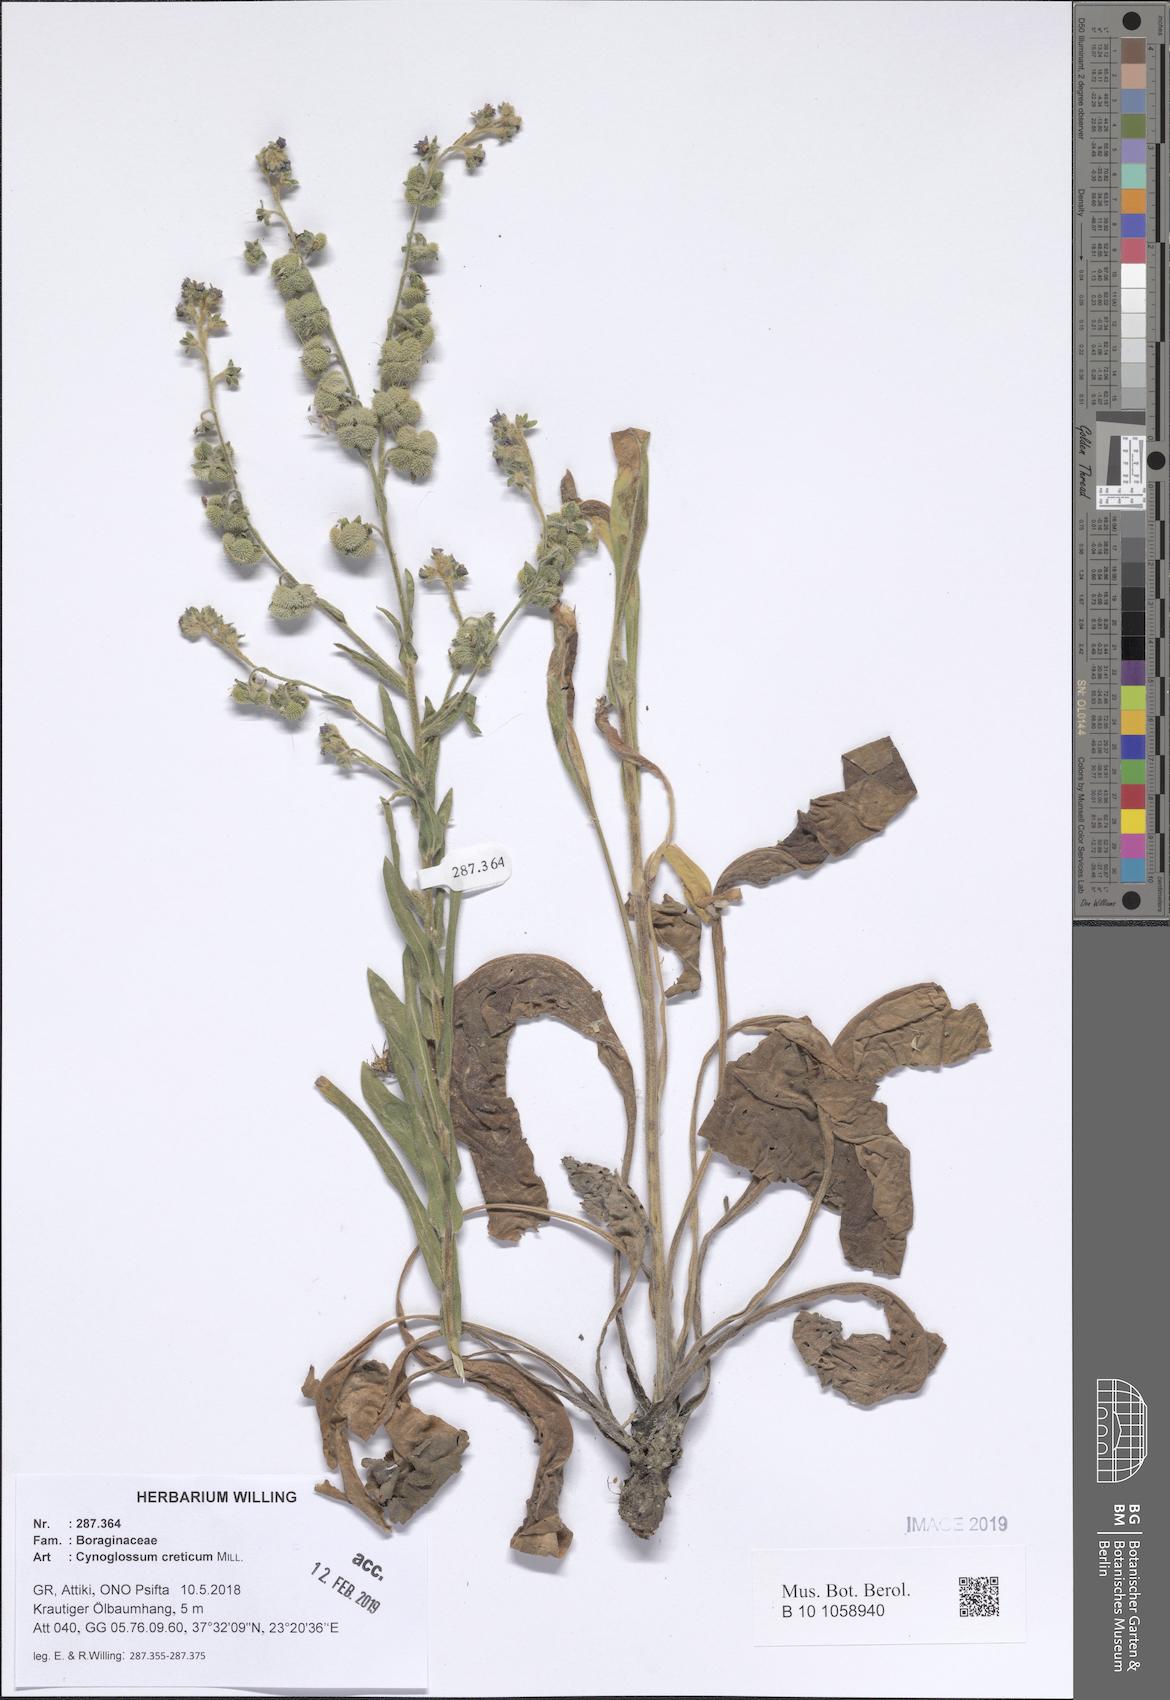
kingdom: Plantae
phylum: Tracheophyta
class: Magnoliopsida
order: Boraginales
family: Boraginaceae
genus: Cynoglossum
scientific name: Cynoglossum creticum
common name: Blue hound's tongue
